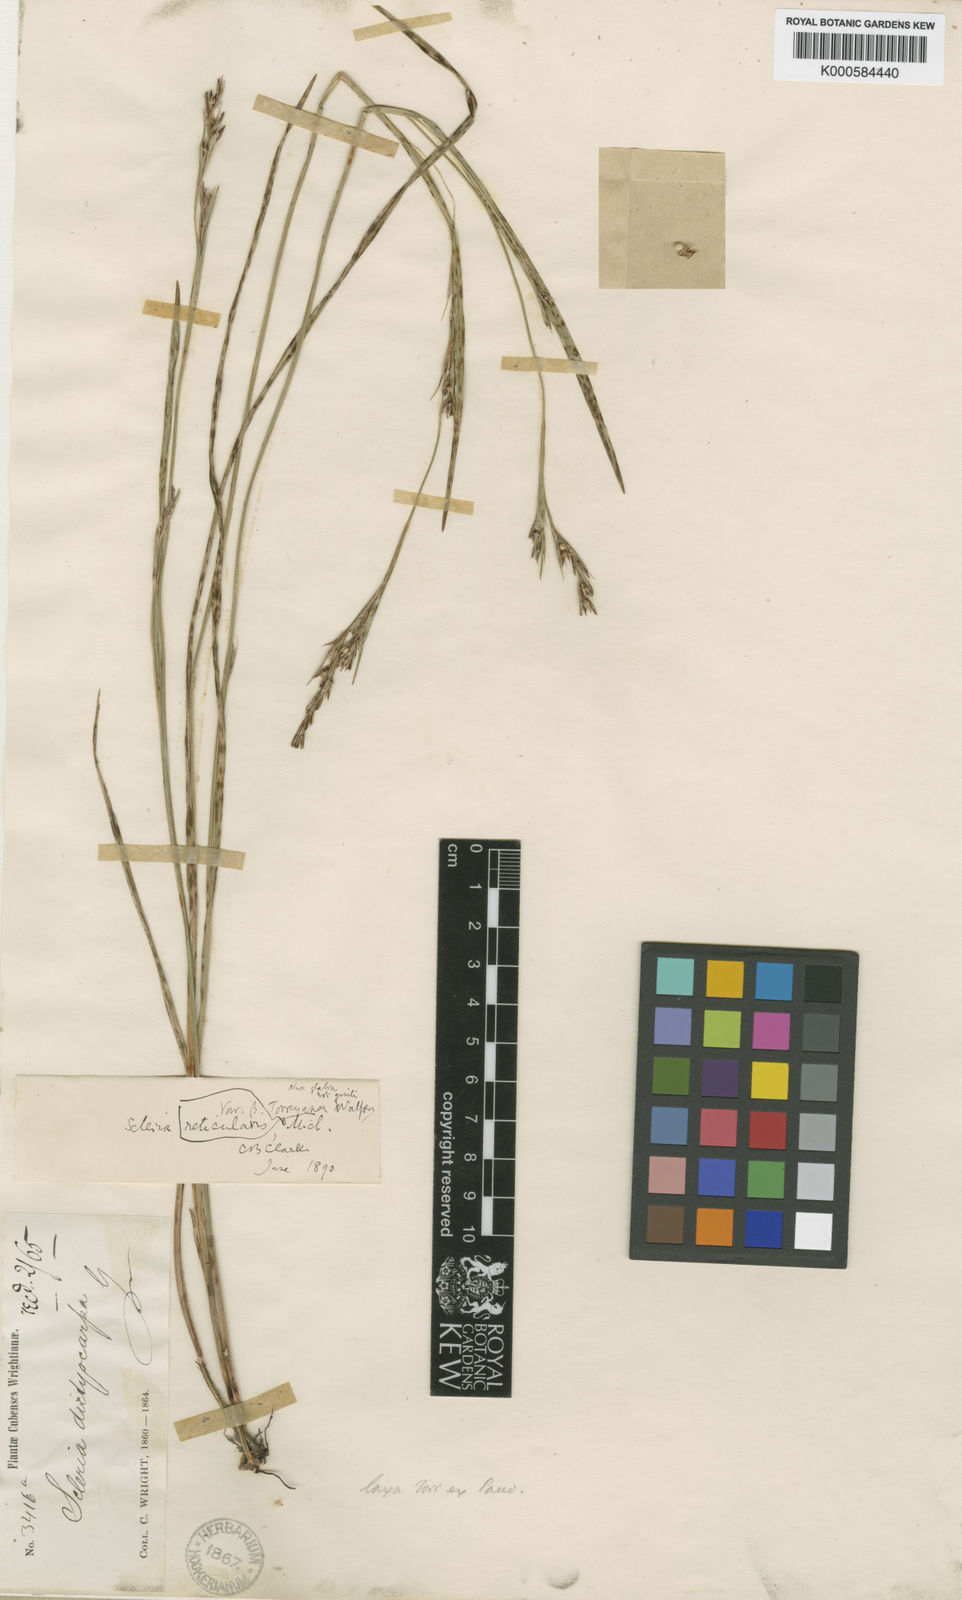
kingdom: Plantae
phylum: Tracheophyta
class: Liliopsida
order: Poales
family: Cyperaceae
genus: Scleria
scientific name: Scleria muehlenbergii
